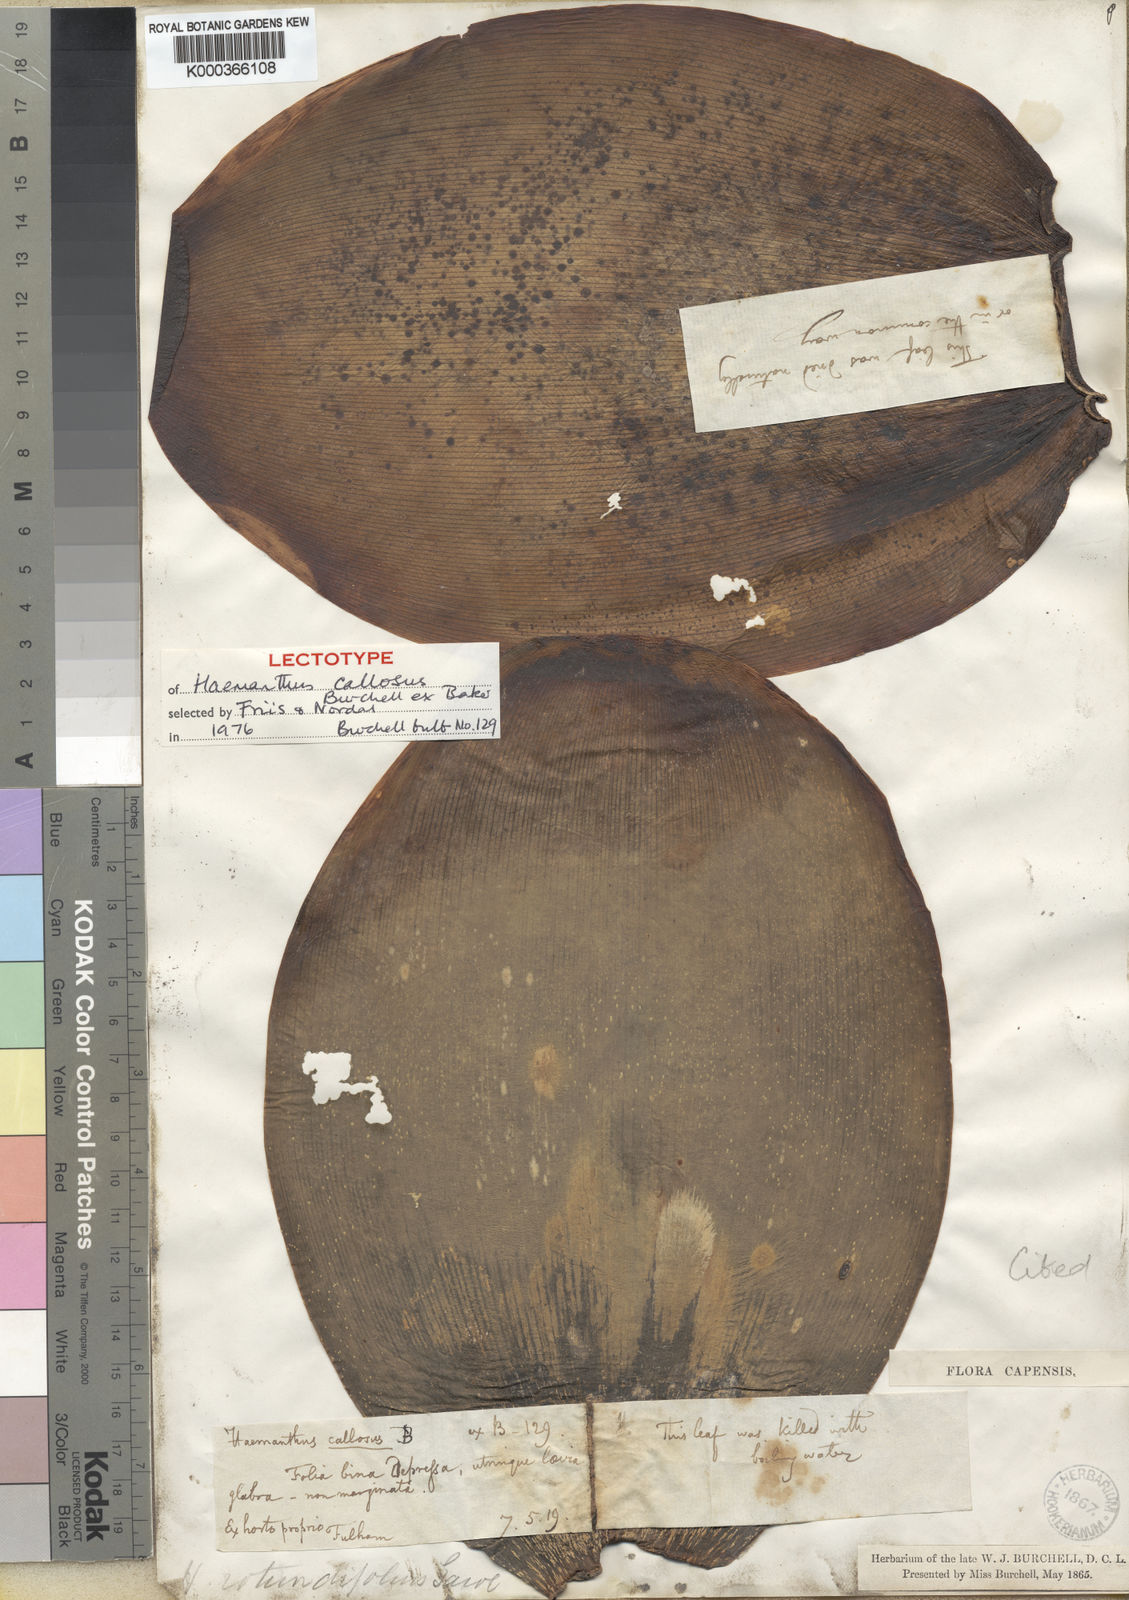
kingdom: Plantae
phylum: Tracheophyta
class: Liliopsida
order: Asparagales
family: Amaryllidaceae
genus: Haemanthus
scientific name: Haemanthus coccineus
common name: Cape-tulip
